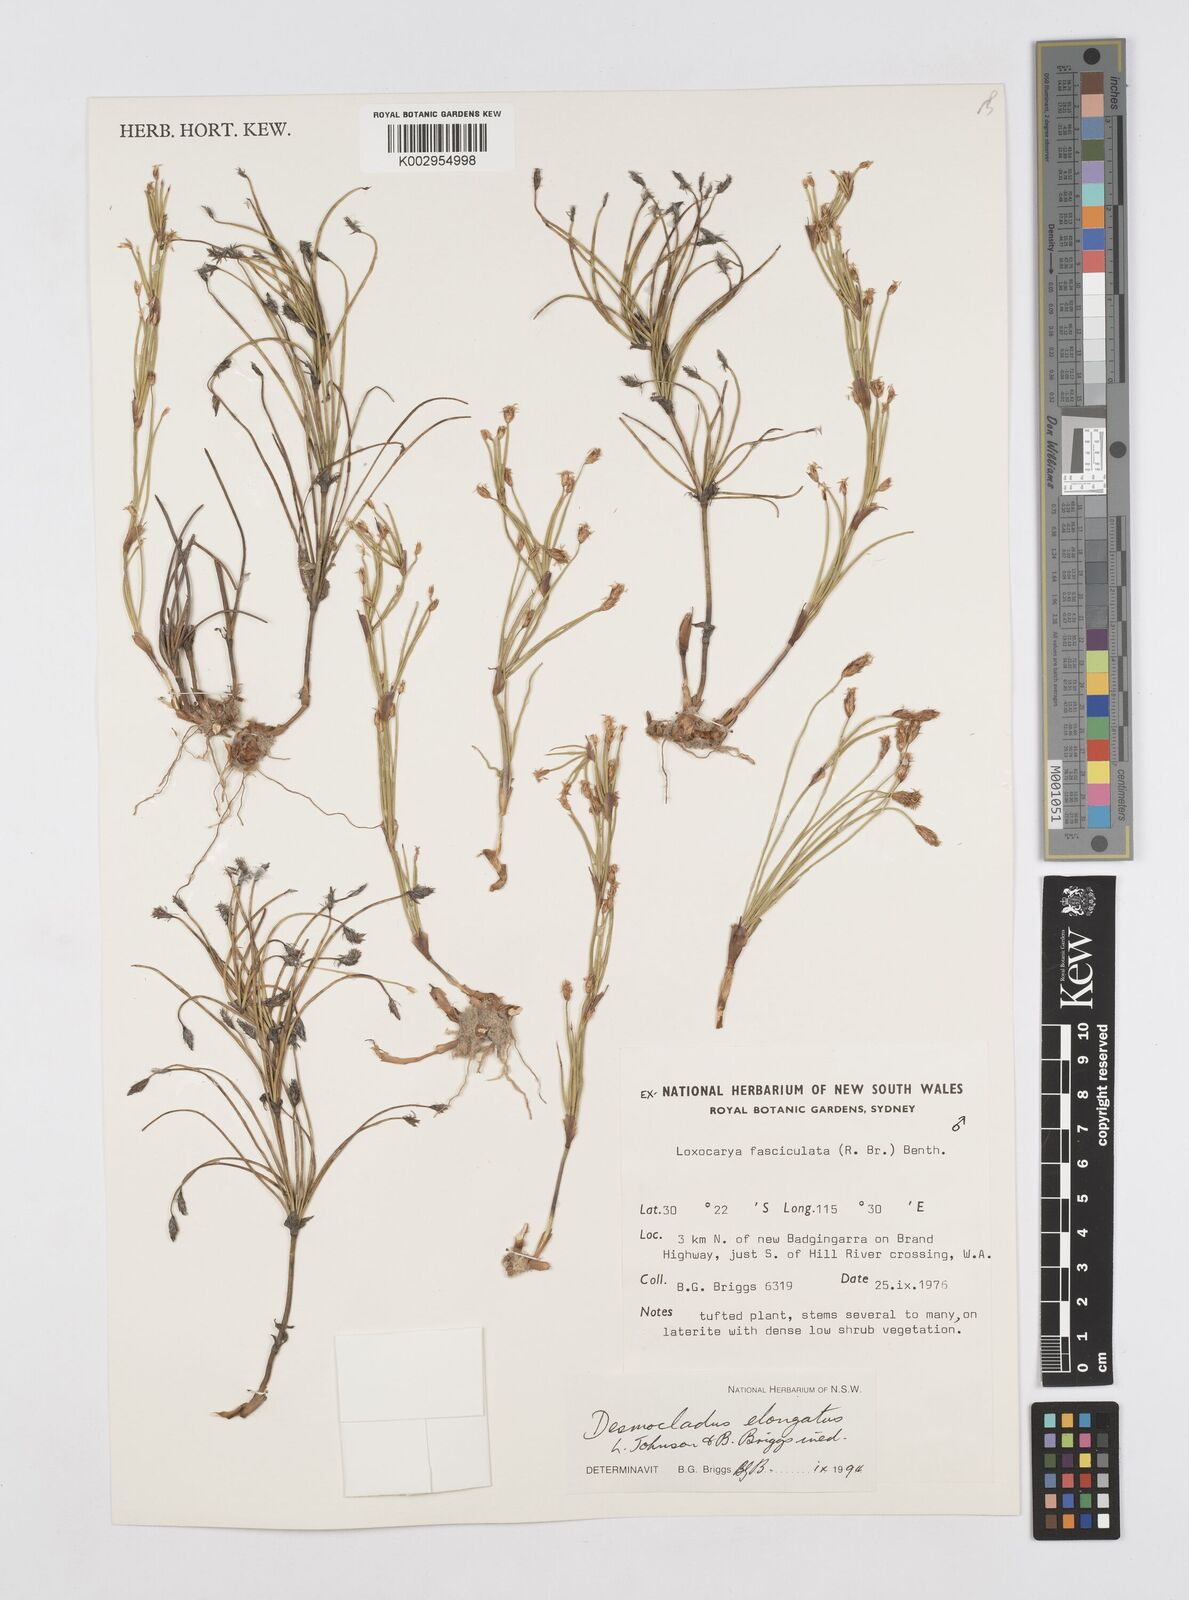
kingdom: Plantae
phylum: Tracheophyta
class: Liliopsida
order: Poales
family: Restionaceae
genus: Desmocladus
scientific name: Desmocladus elongatus
